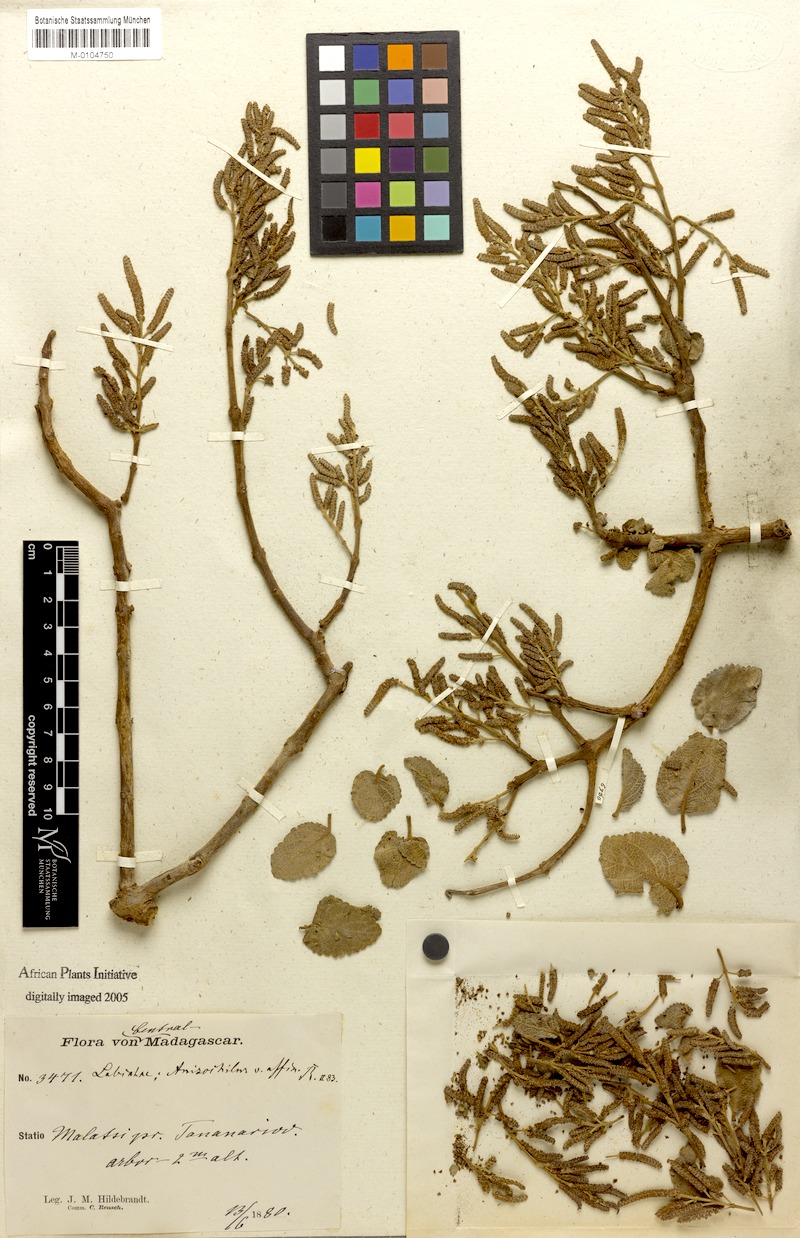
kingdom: Plantae
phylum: Tracheophyta
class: Magnoliopsida
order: Lamiales
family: Lamiaceae
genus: Tetradenia
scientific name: Tetradenia fruticosa
